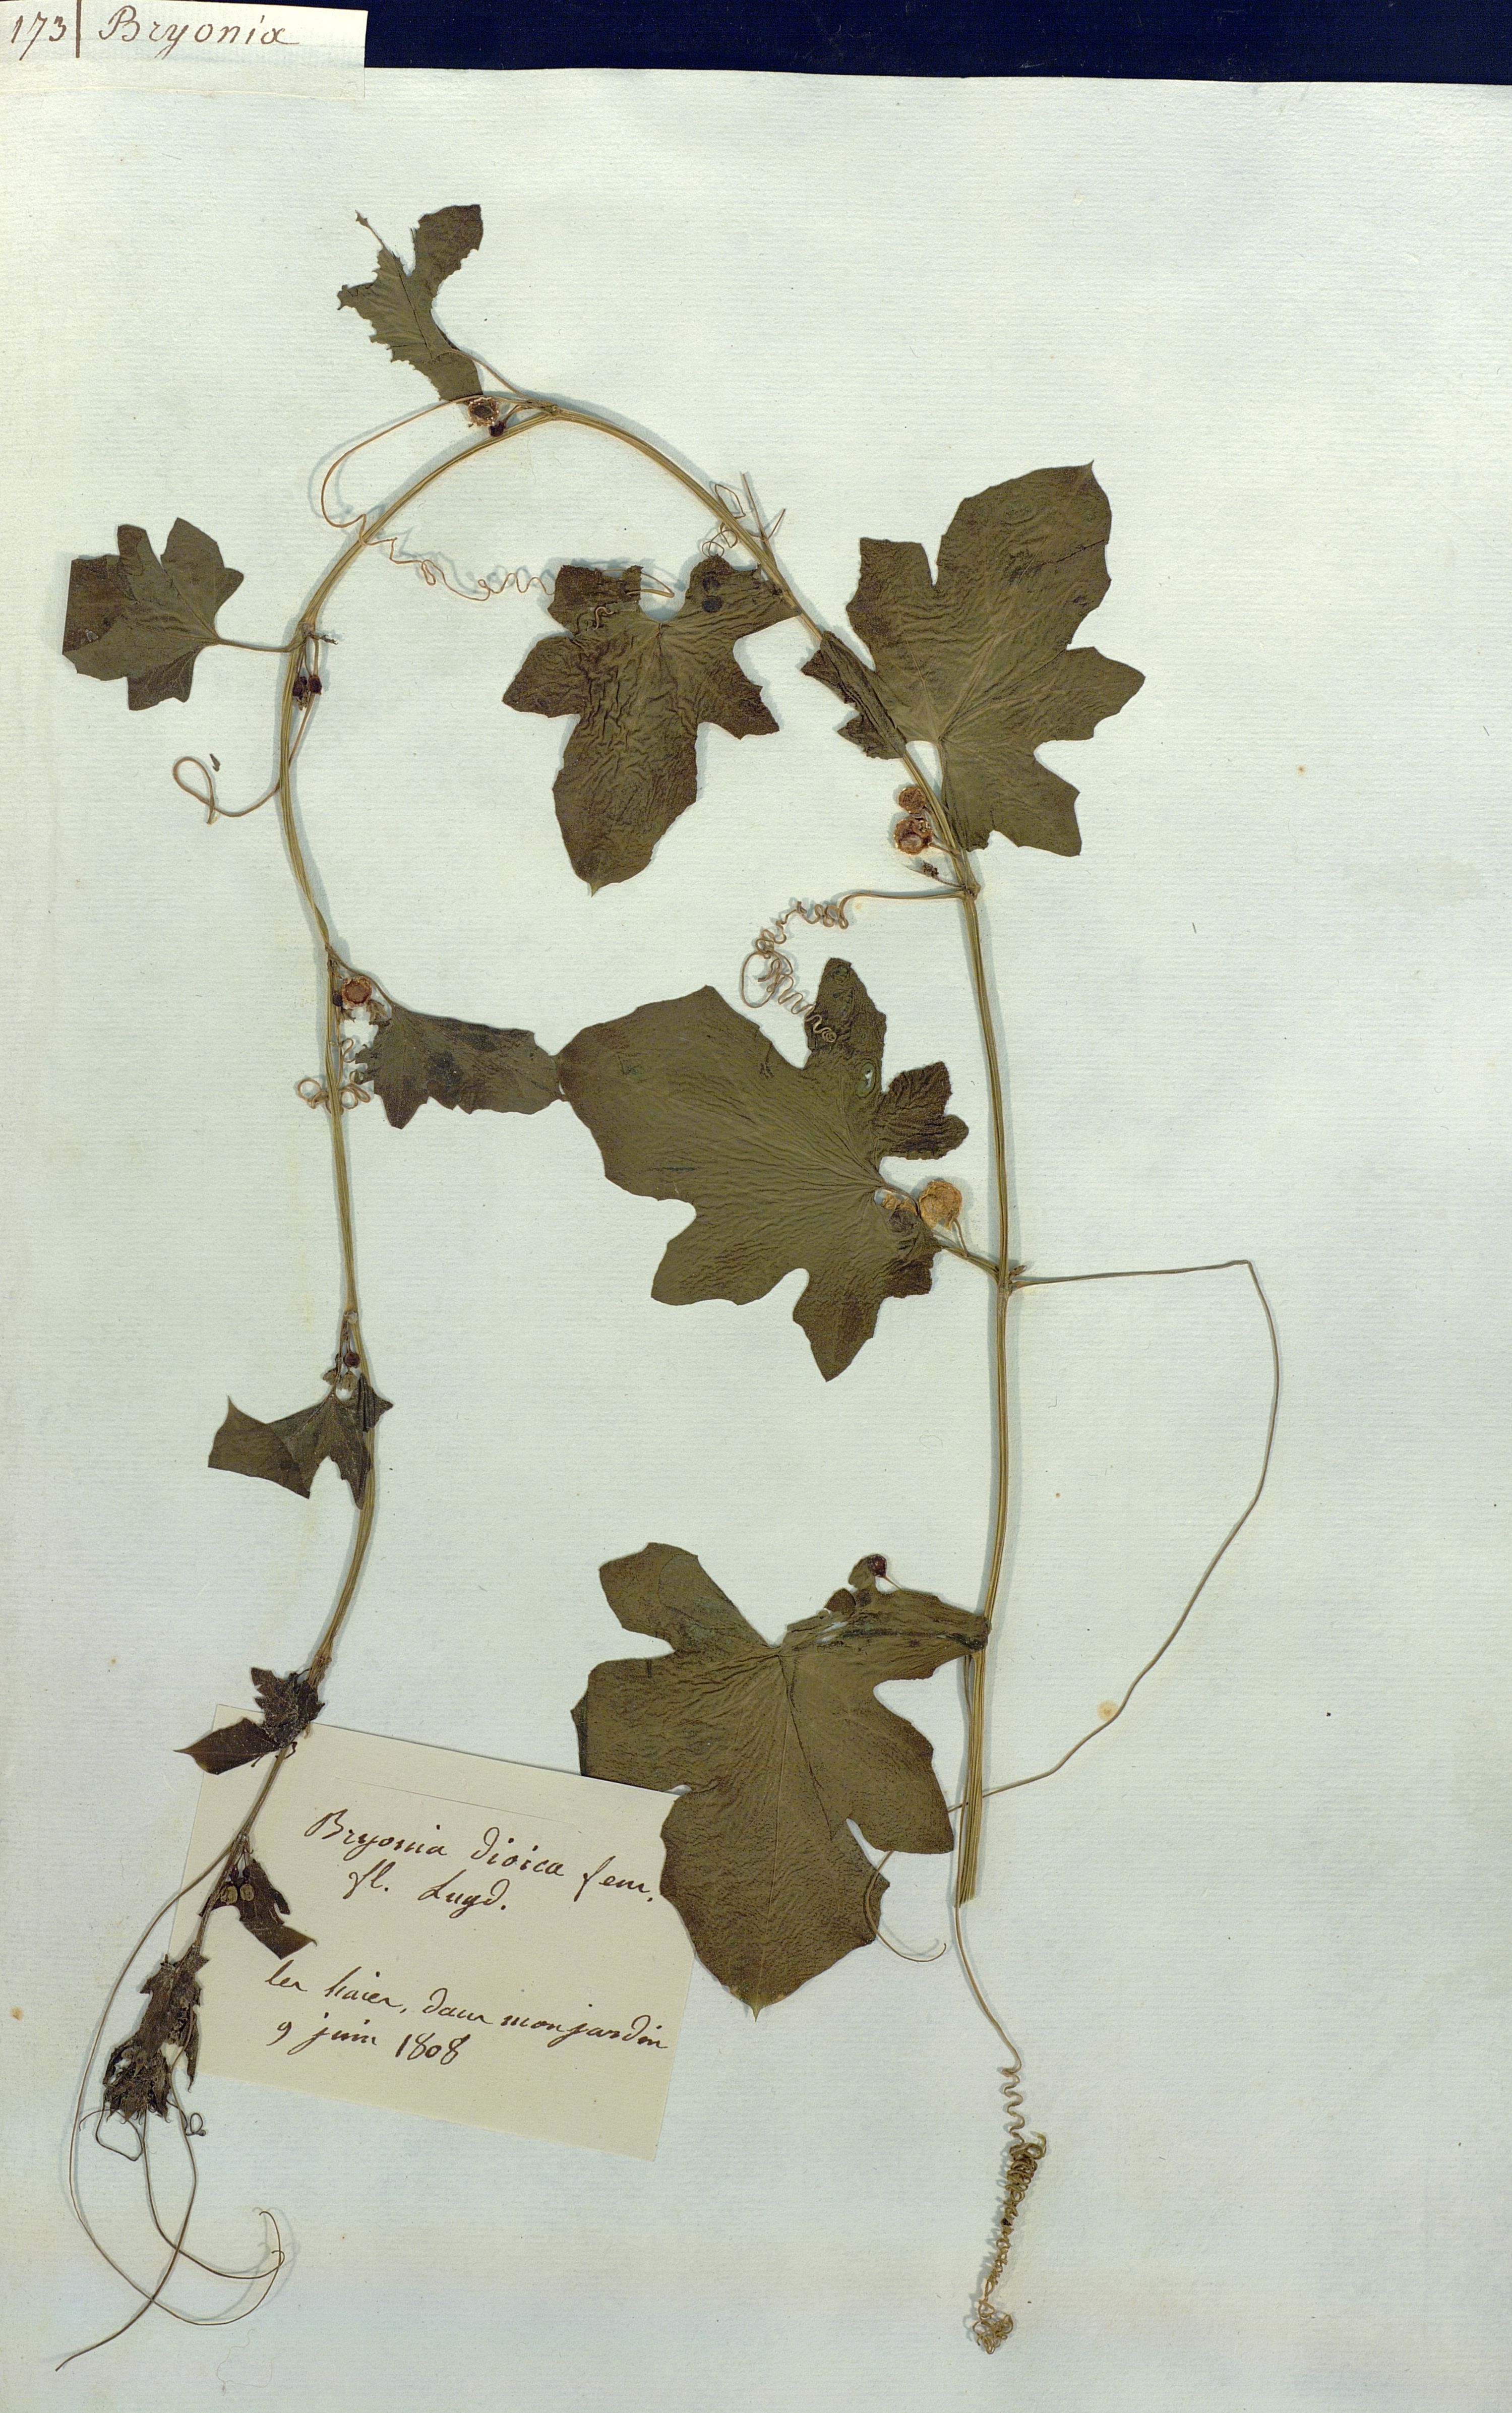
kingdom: Plantae
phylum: Tracheophyta
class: Magnoliopsida
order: Cucurbitales
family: Cucurbitaceae
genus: Bryonia
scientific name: Bryonia dioica
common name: White bryony
